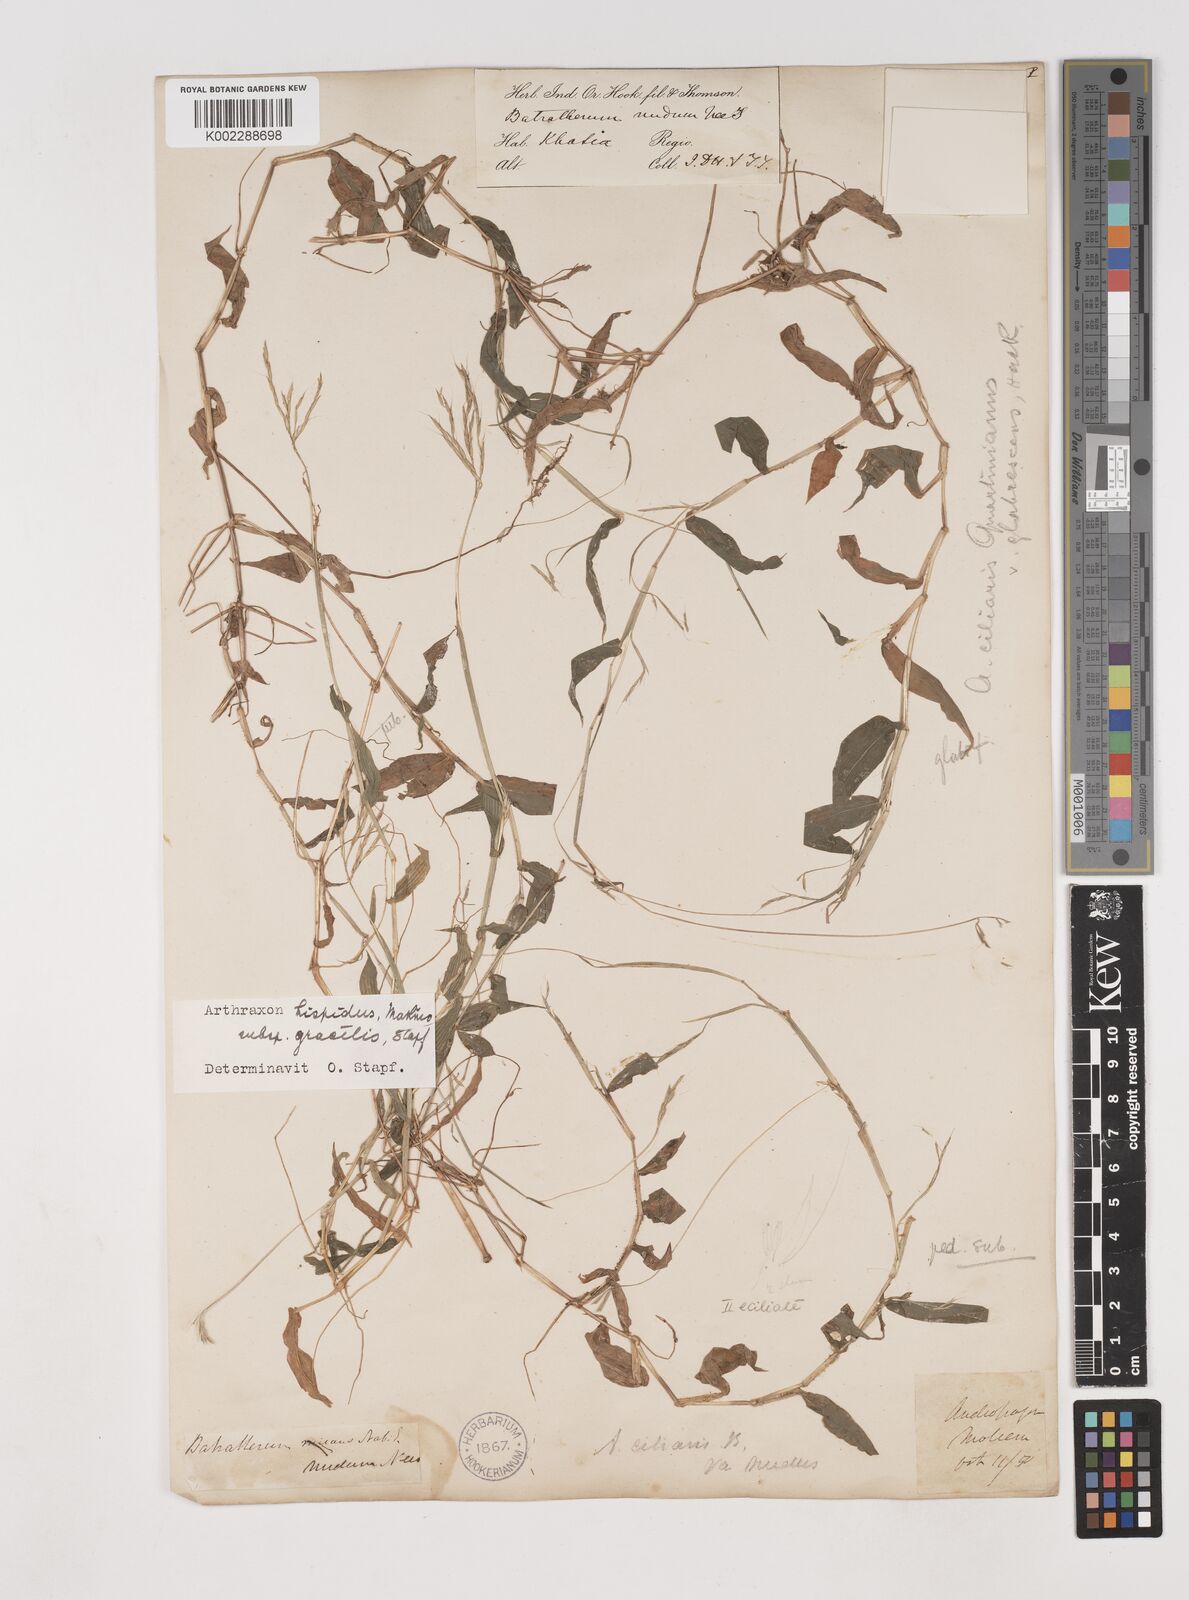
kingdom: Plantae
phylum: Tracheophyta
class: Liliopsida
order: Poales
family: Poaceae
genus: Arthraxon
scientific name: Arthraxon hispidus
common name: Small carpgrass
